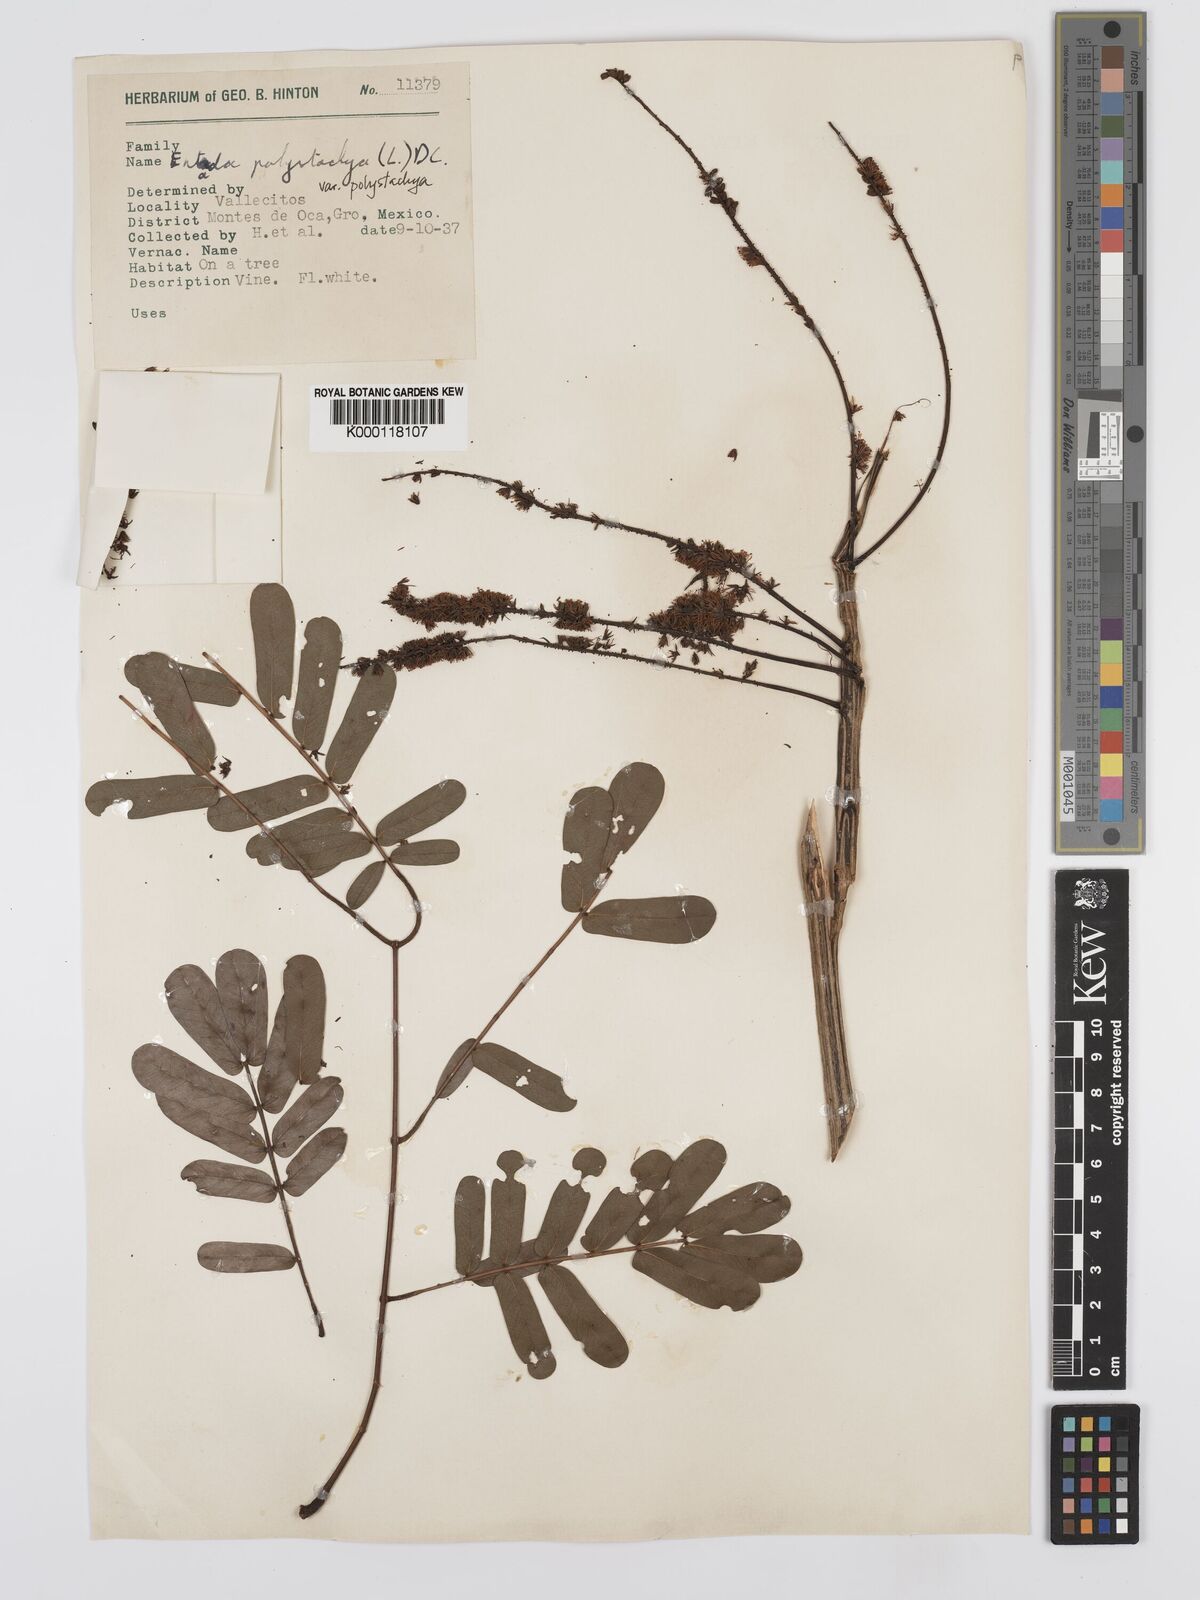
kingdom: Plantae
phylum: Tracheophyta
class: Magnoliopsida
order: Fabales
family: Fabaceae
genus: Entada
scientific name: Entada polystachya
